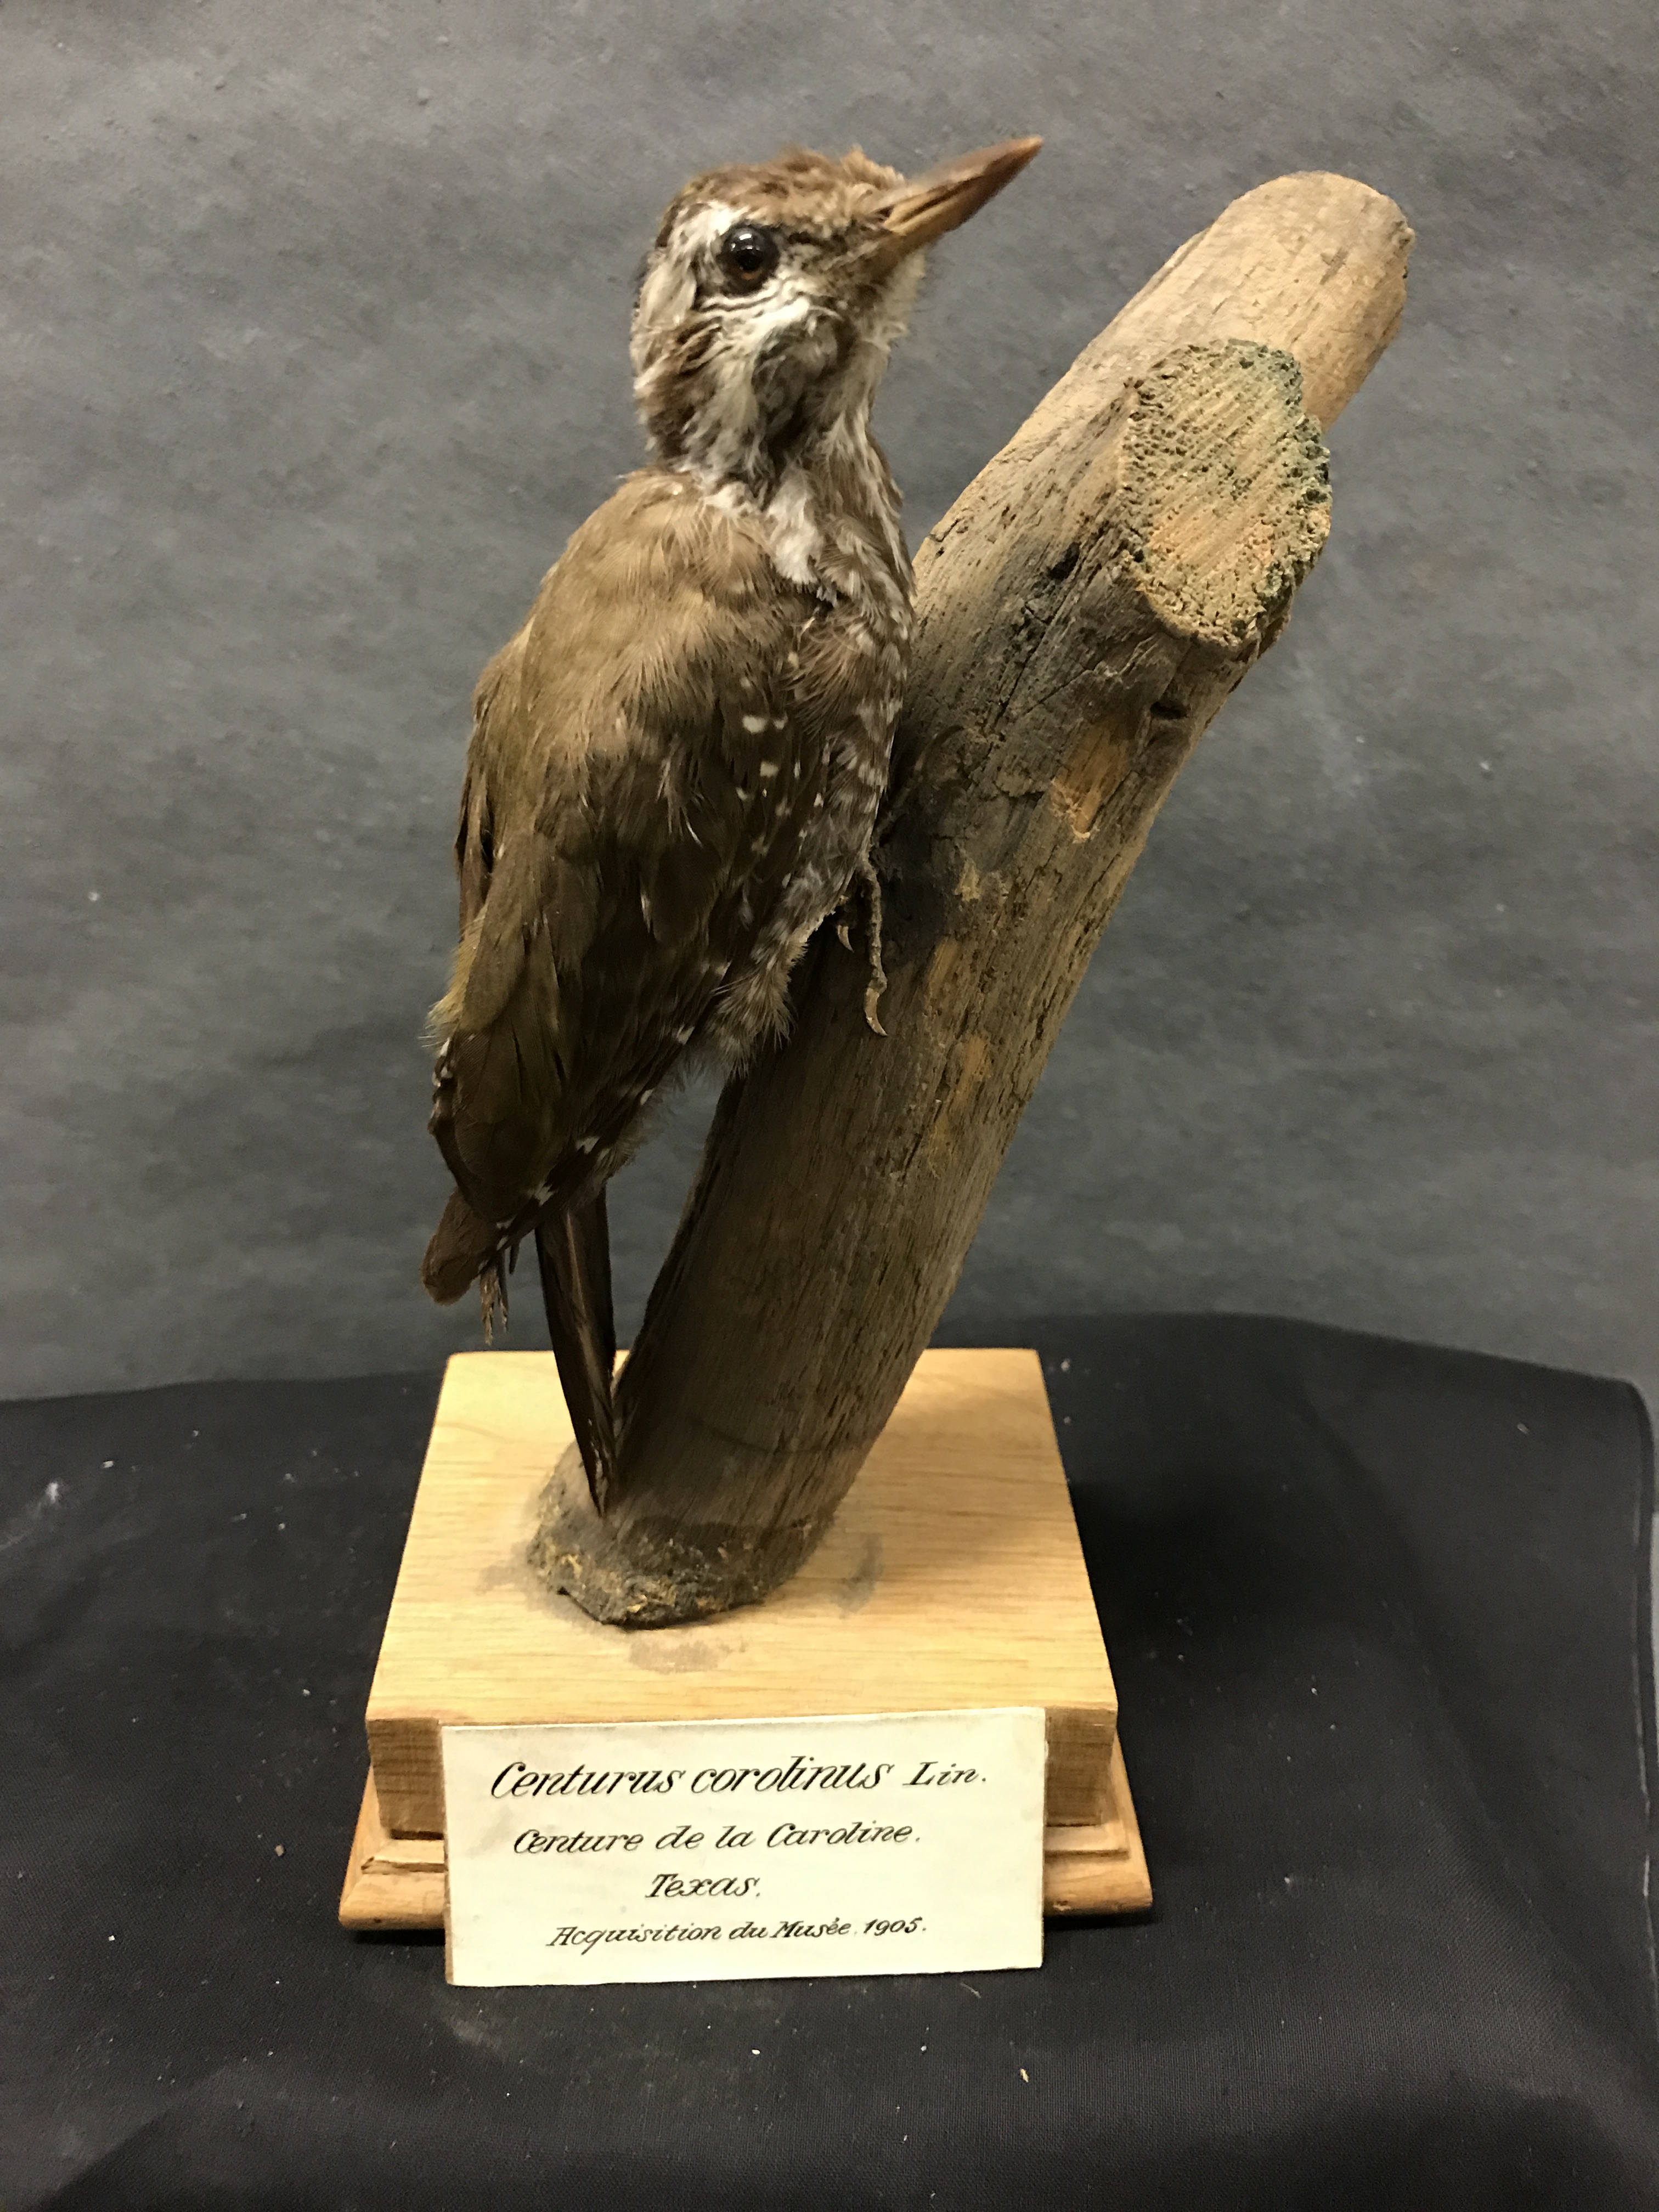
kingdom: Animalia
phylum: Chordata
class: Aves
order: Piciformes
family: Picidae
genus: Chloropicus
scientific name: Chloropicus xantholophus
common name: Yellow-crested woodpecker
